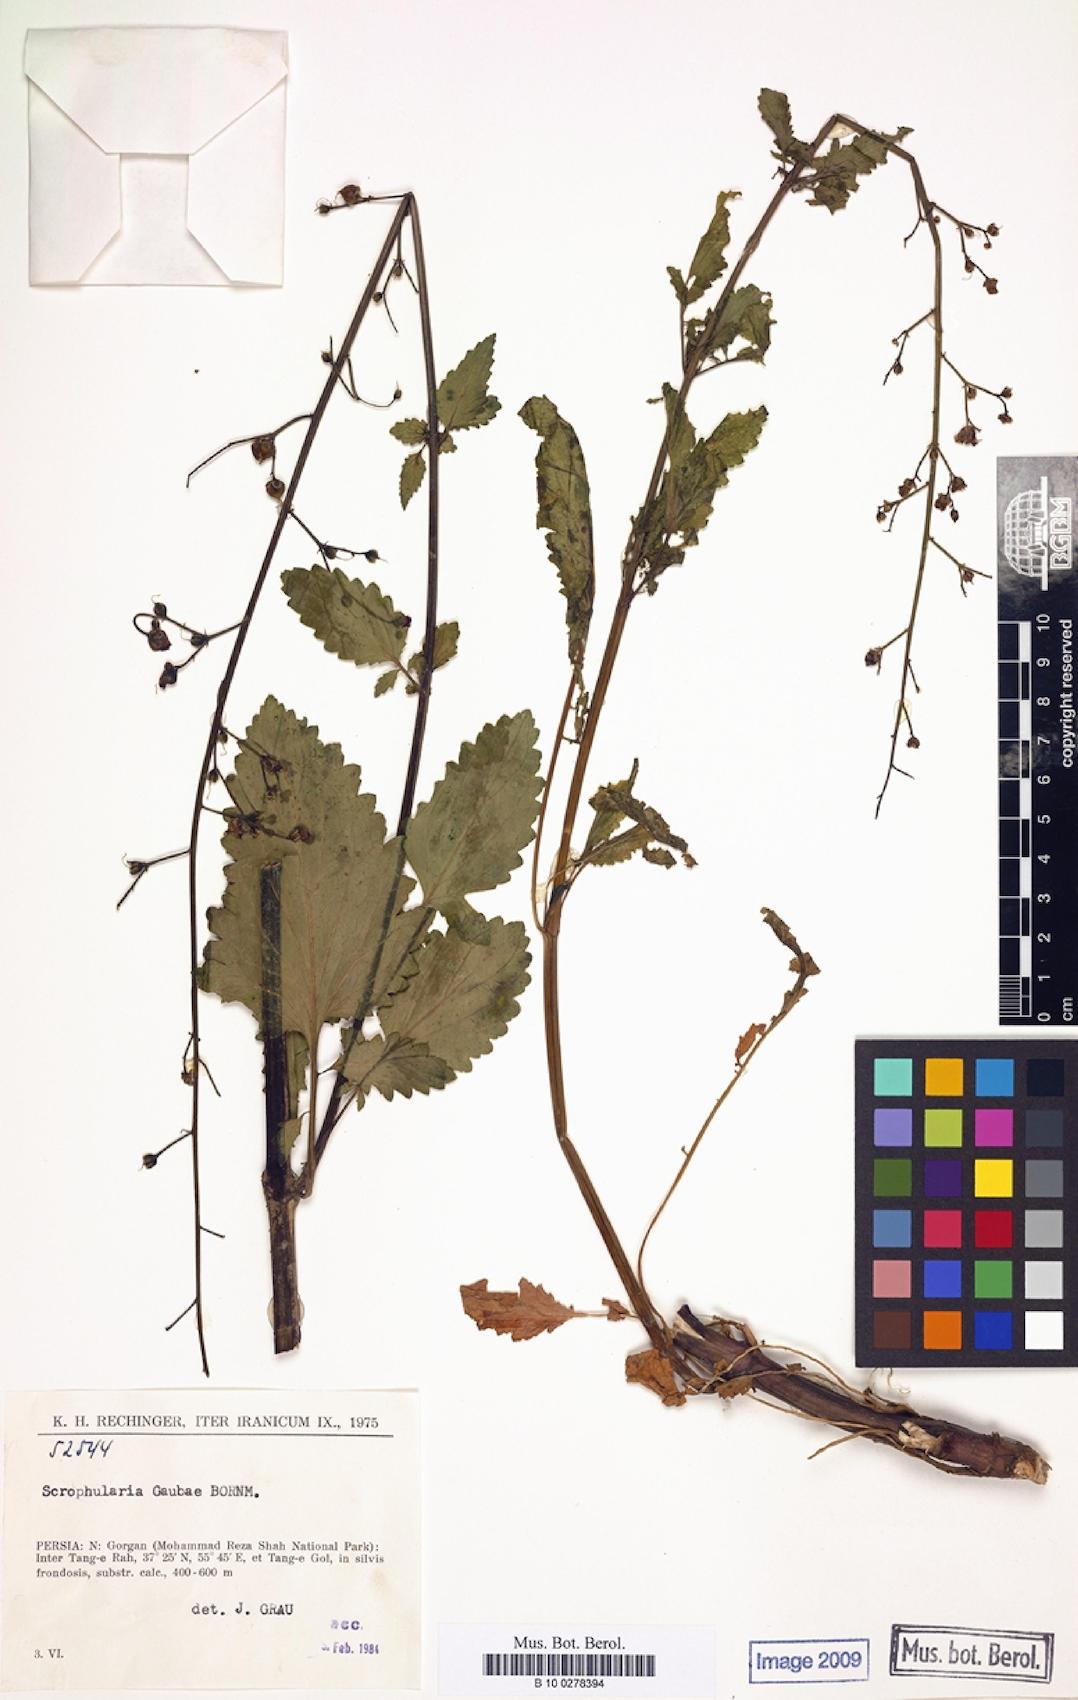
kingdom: Plantae
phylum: Tracheophyta
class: Magnoliopsida
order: Lamiales
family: Scrophulariaceae
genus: Scrophularia
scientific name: Scrophularia rostrata
